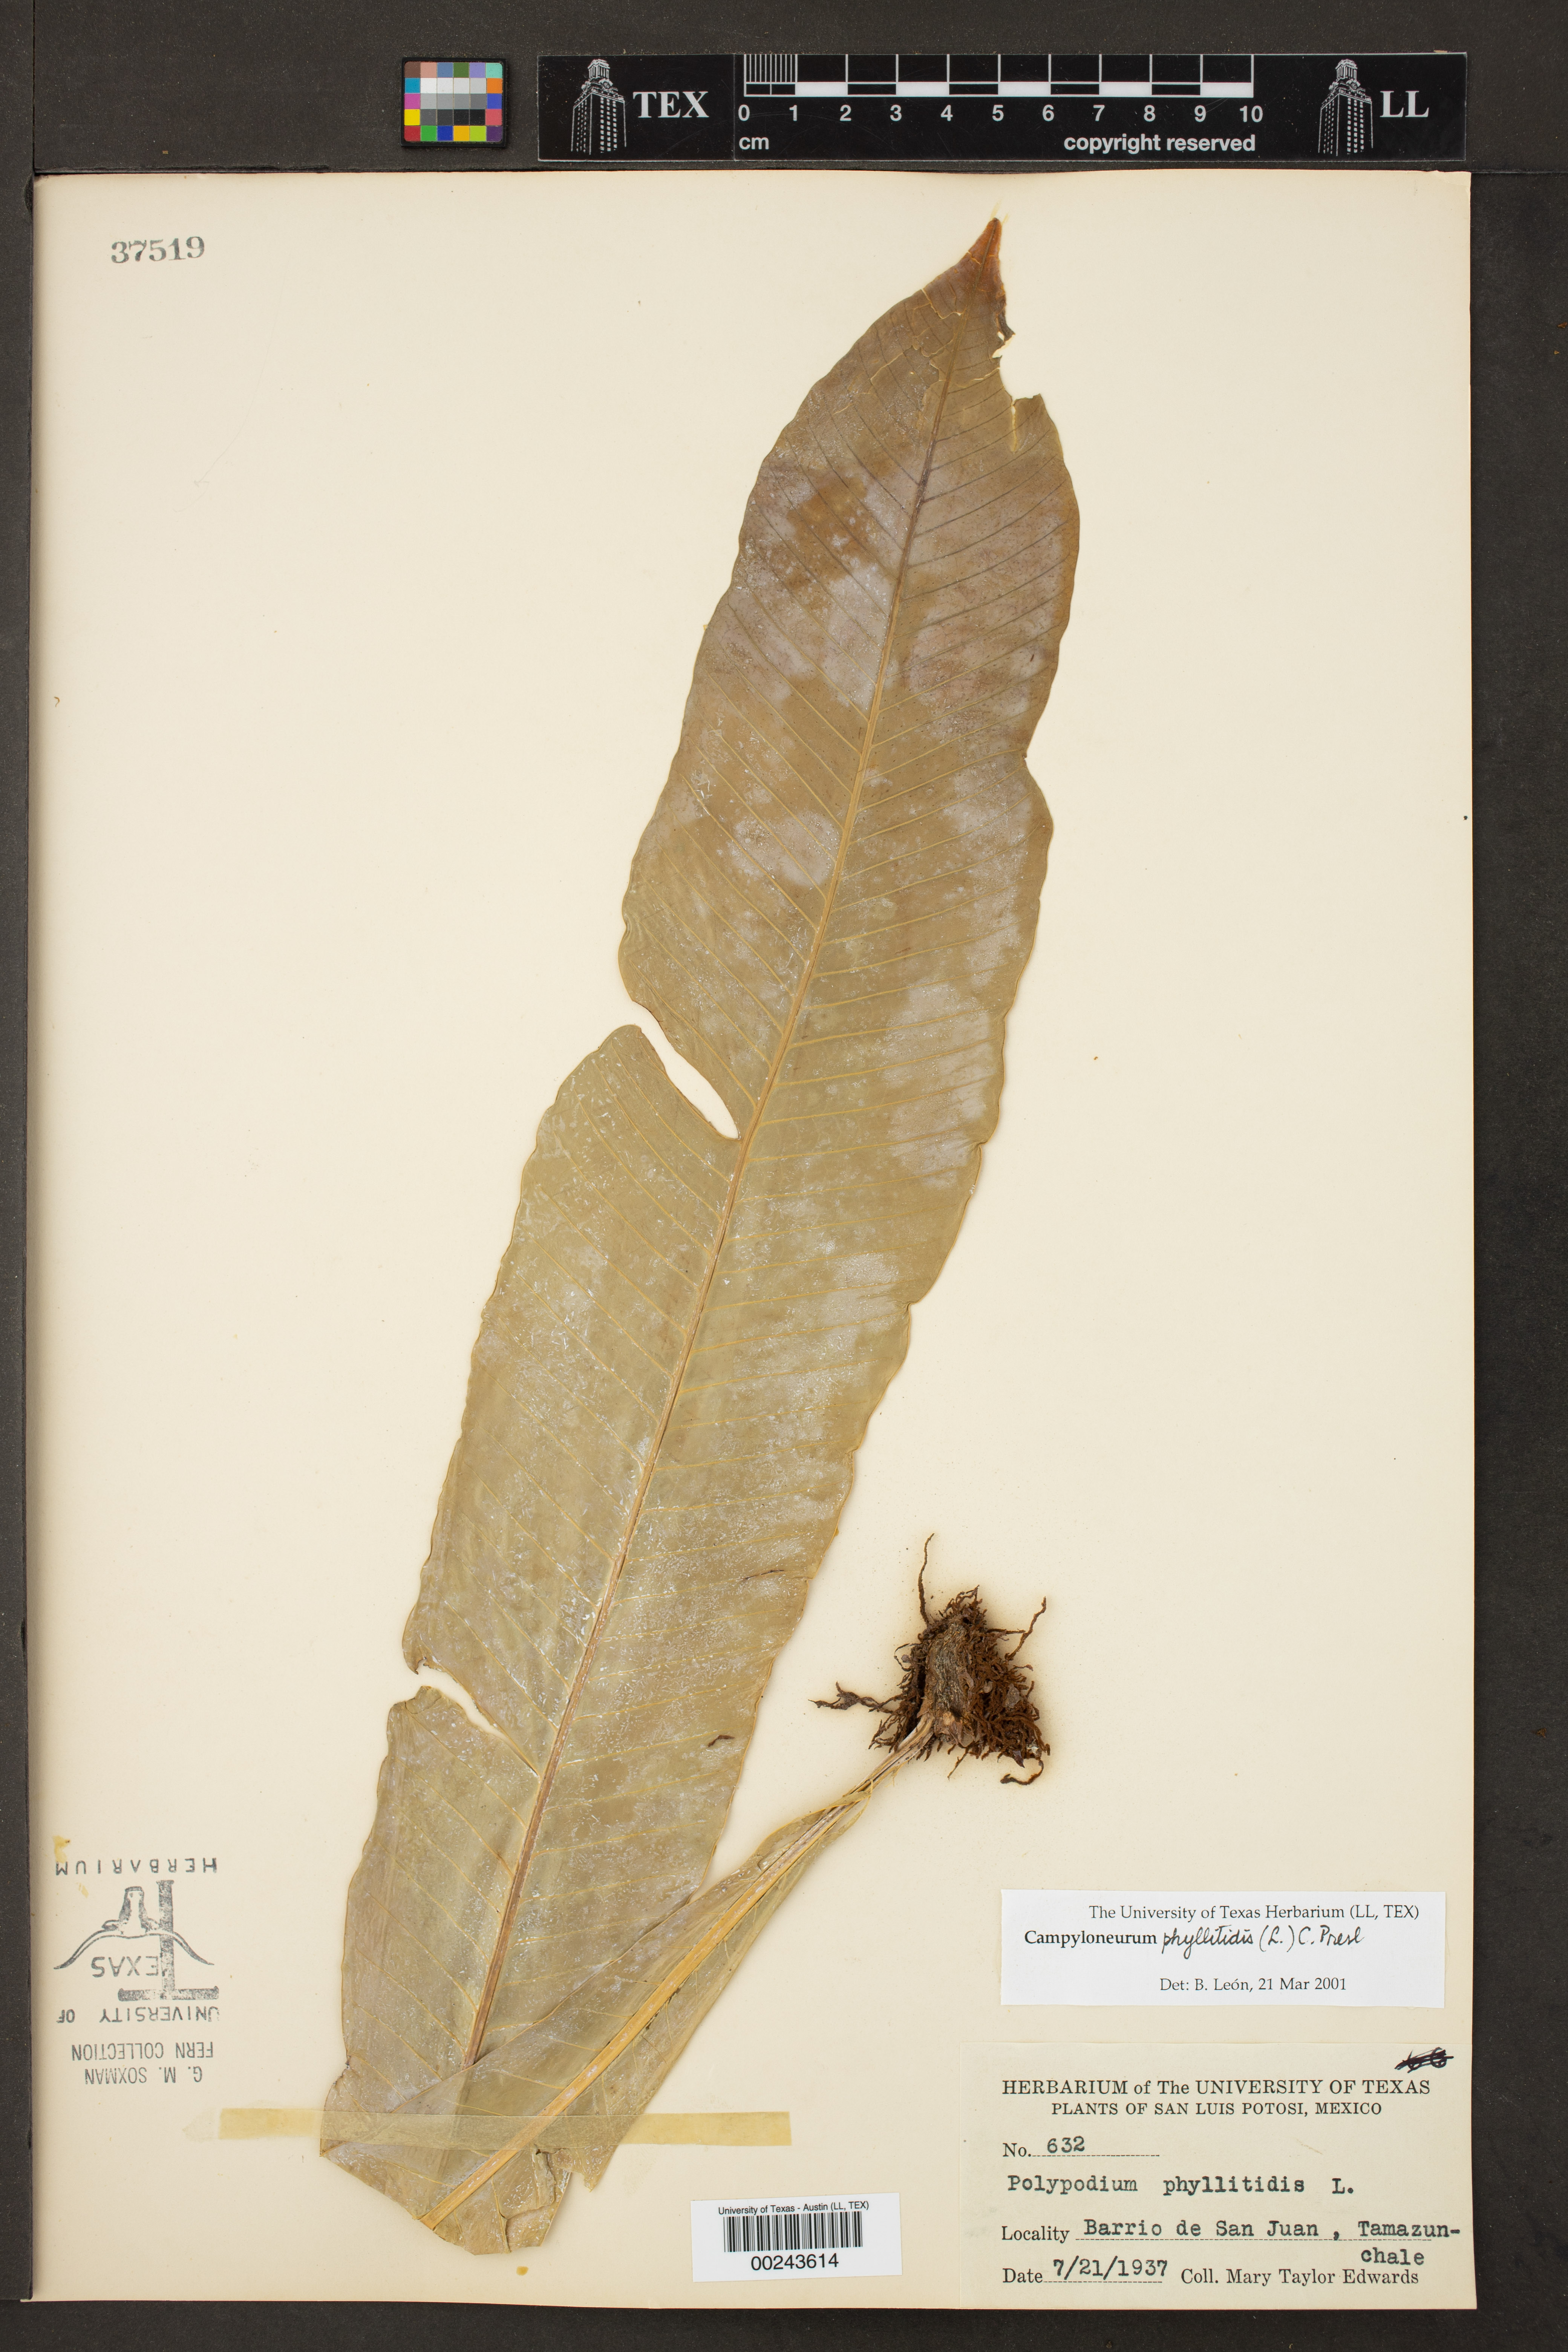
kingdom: Plantae
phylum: Tracheophyta
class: Polypodiopsida
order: Polypodiales
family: Polypodiaceae
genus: Campyloneurum
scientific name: Campyloneurum phyllitidis
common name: Cow-tongue fern
